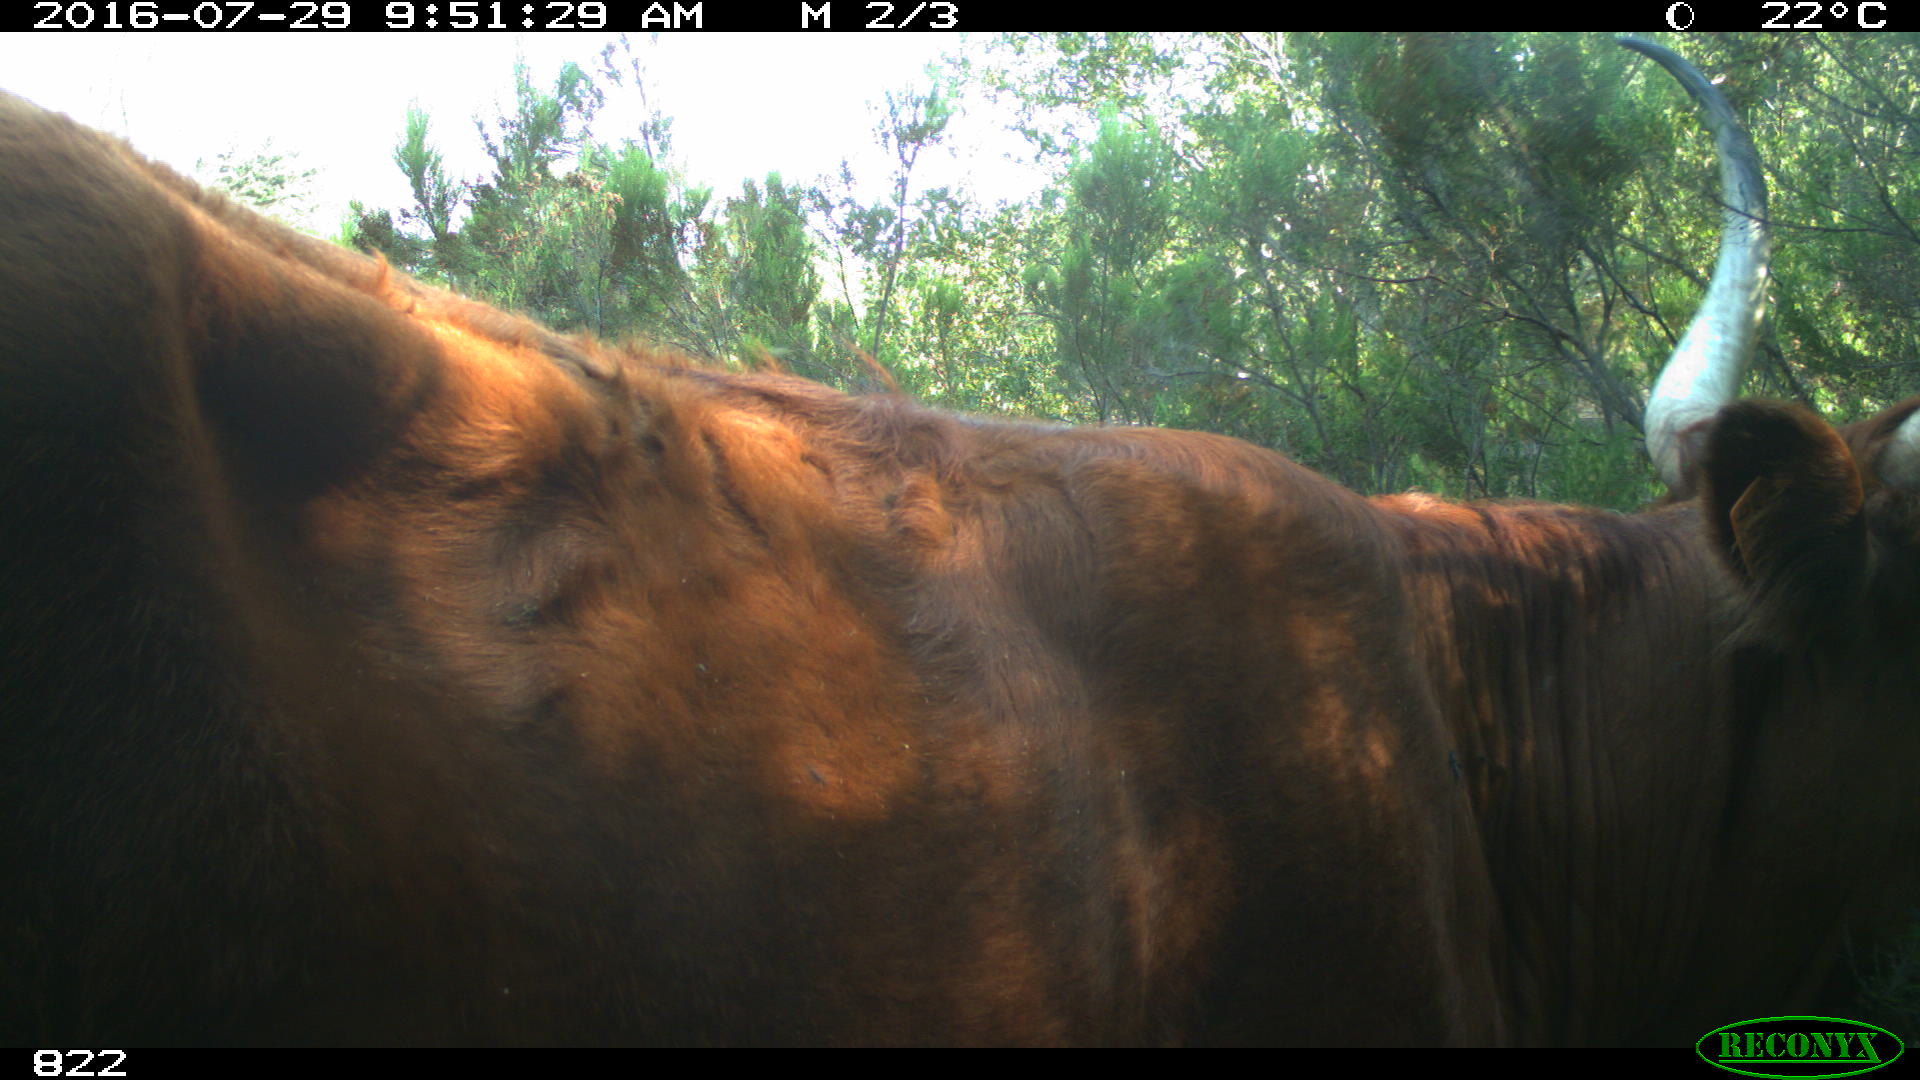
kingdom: Animalia
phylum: Chordata
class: Mammalia
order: Artiodactyla
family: Bovidae
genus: Bos
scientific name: Bos taurus
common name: Domesticated cattle
